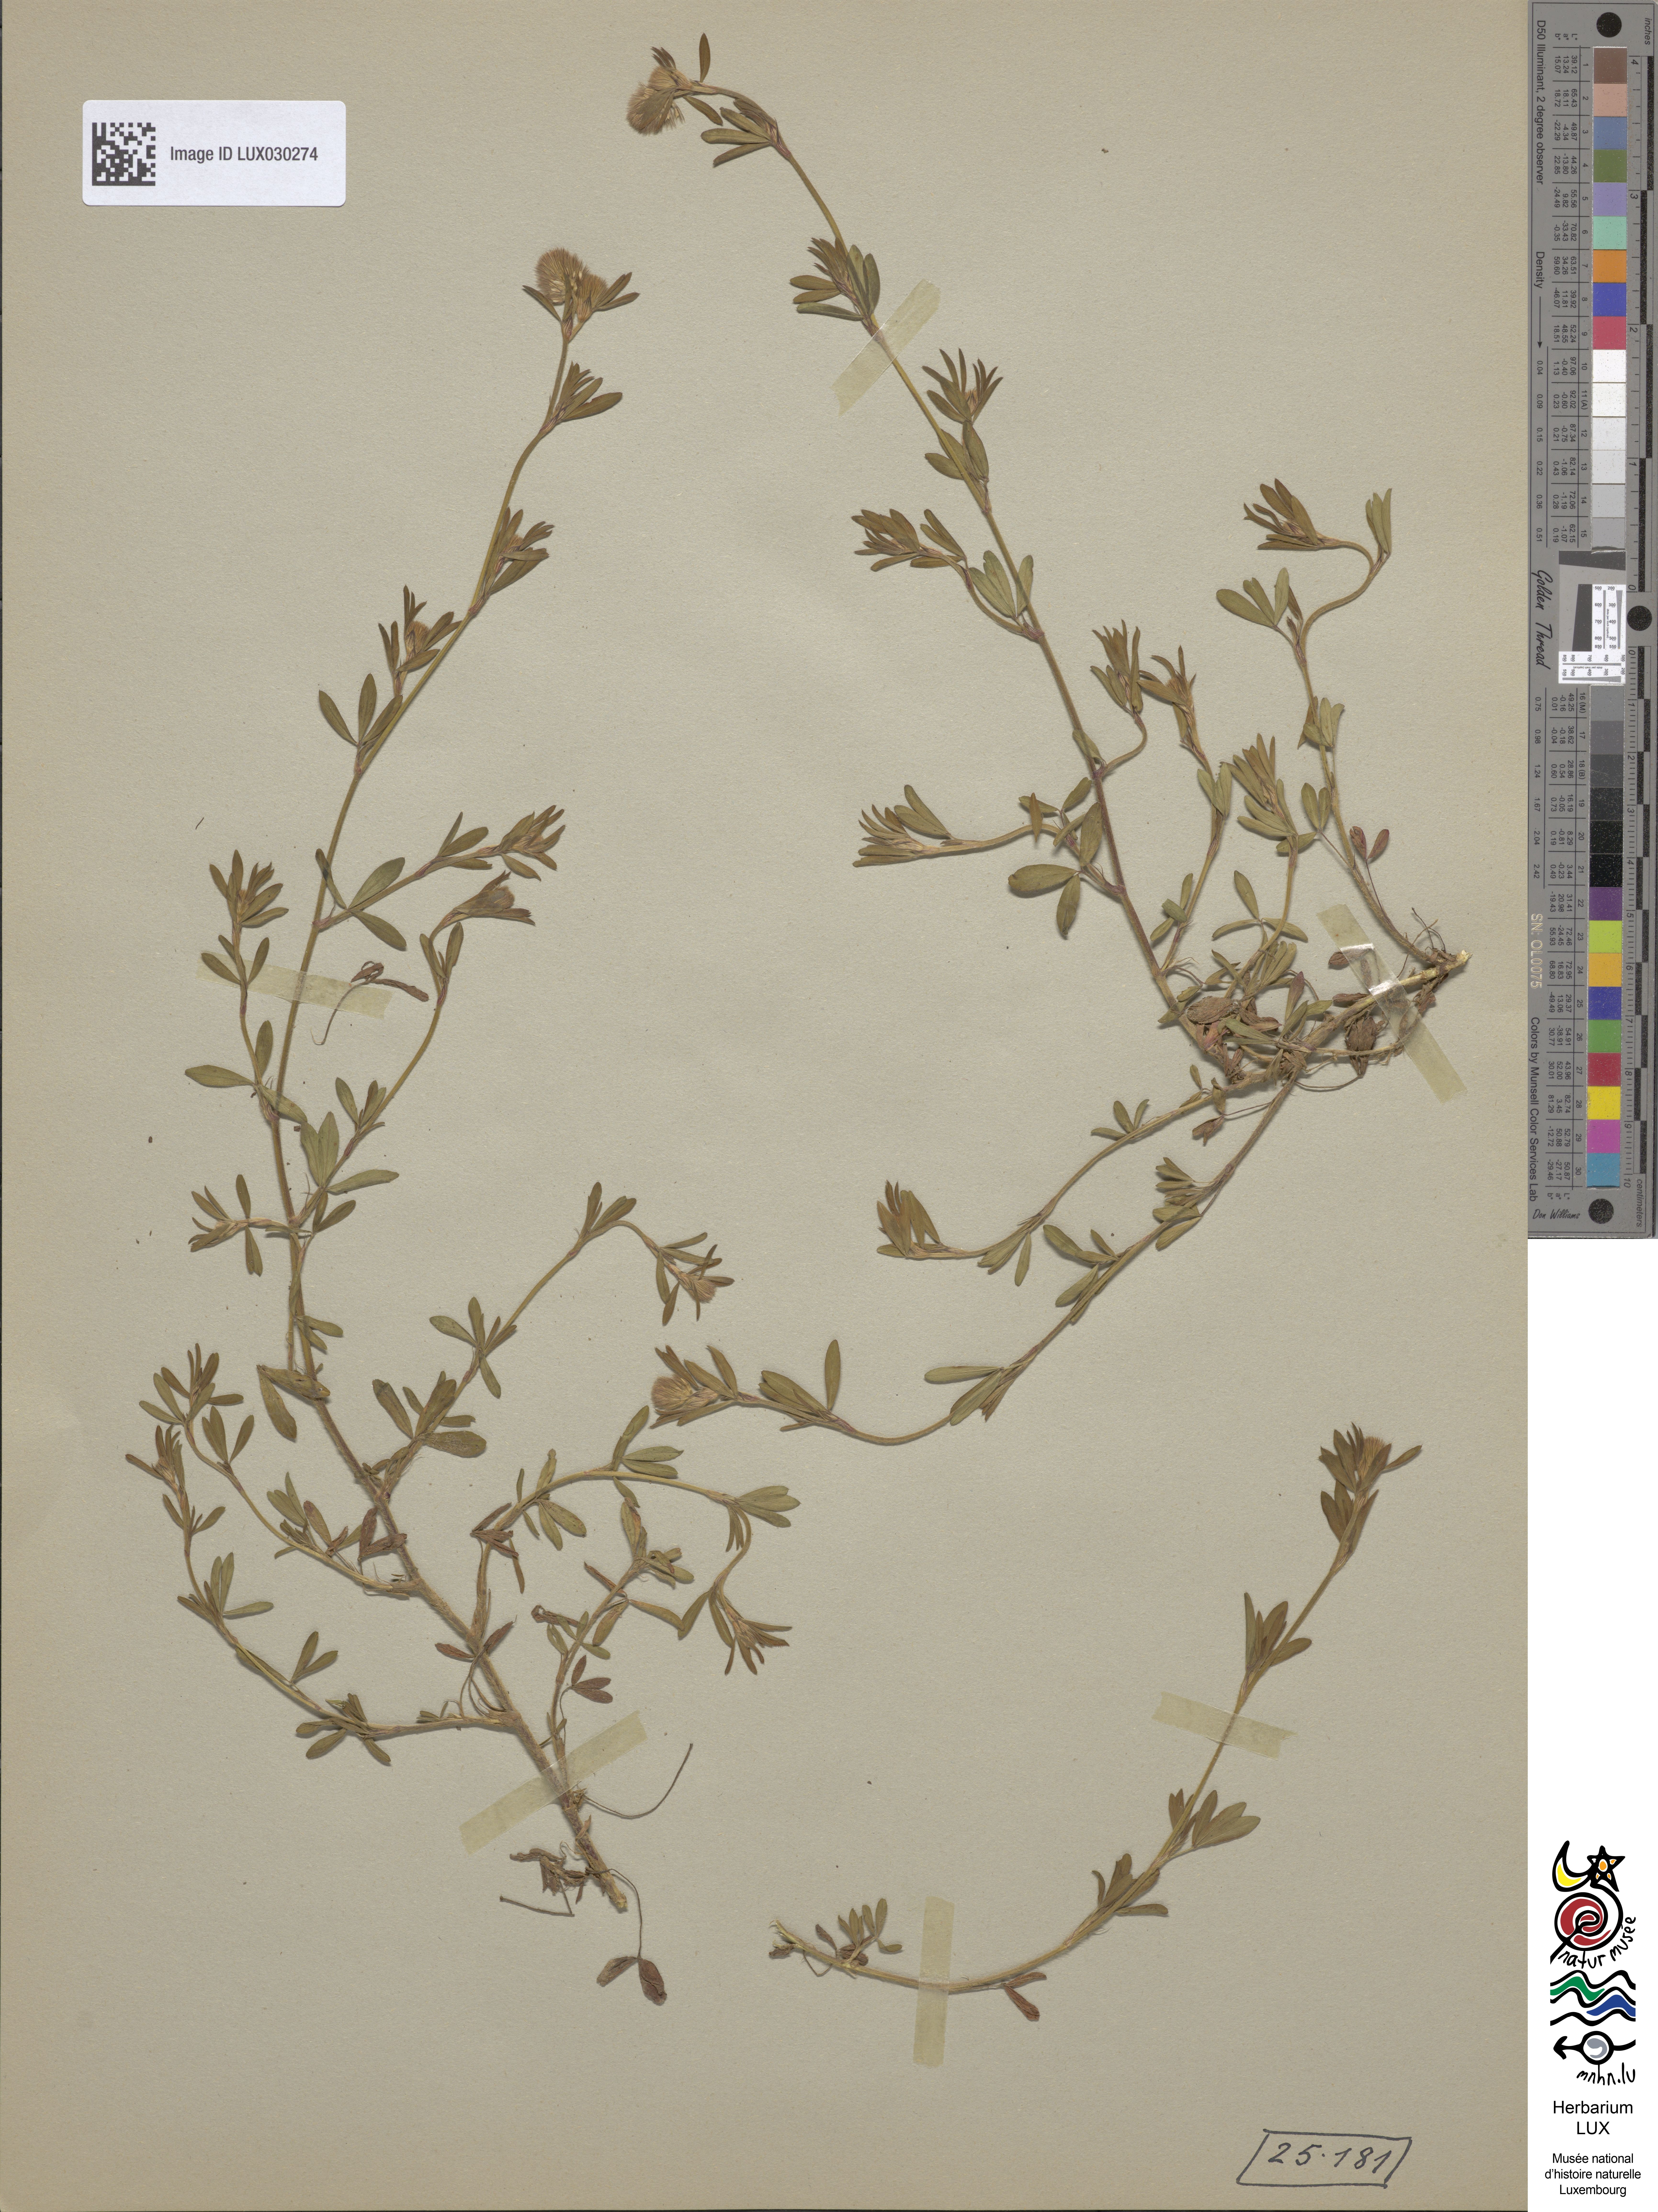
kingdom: Plantae
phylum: Tracheophyta
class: Magnoliopsida
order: Fabales
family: Fabaceae
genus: Trifolium
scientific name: Trifolium arvense
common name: Hare's-foot clover
